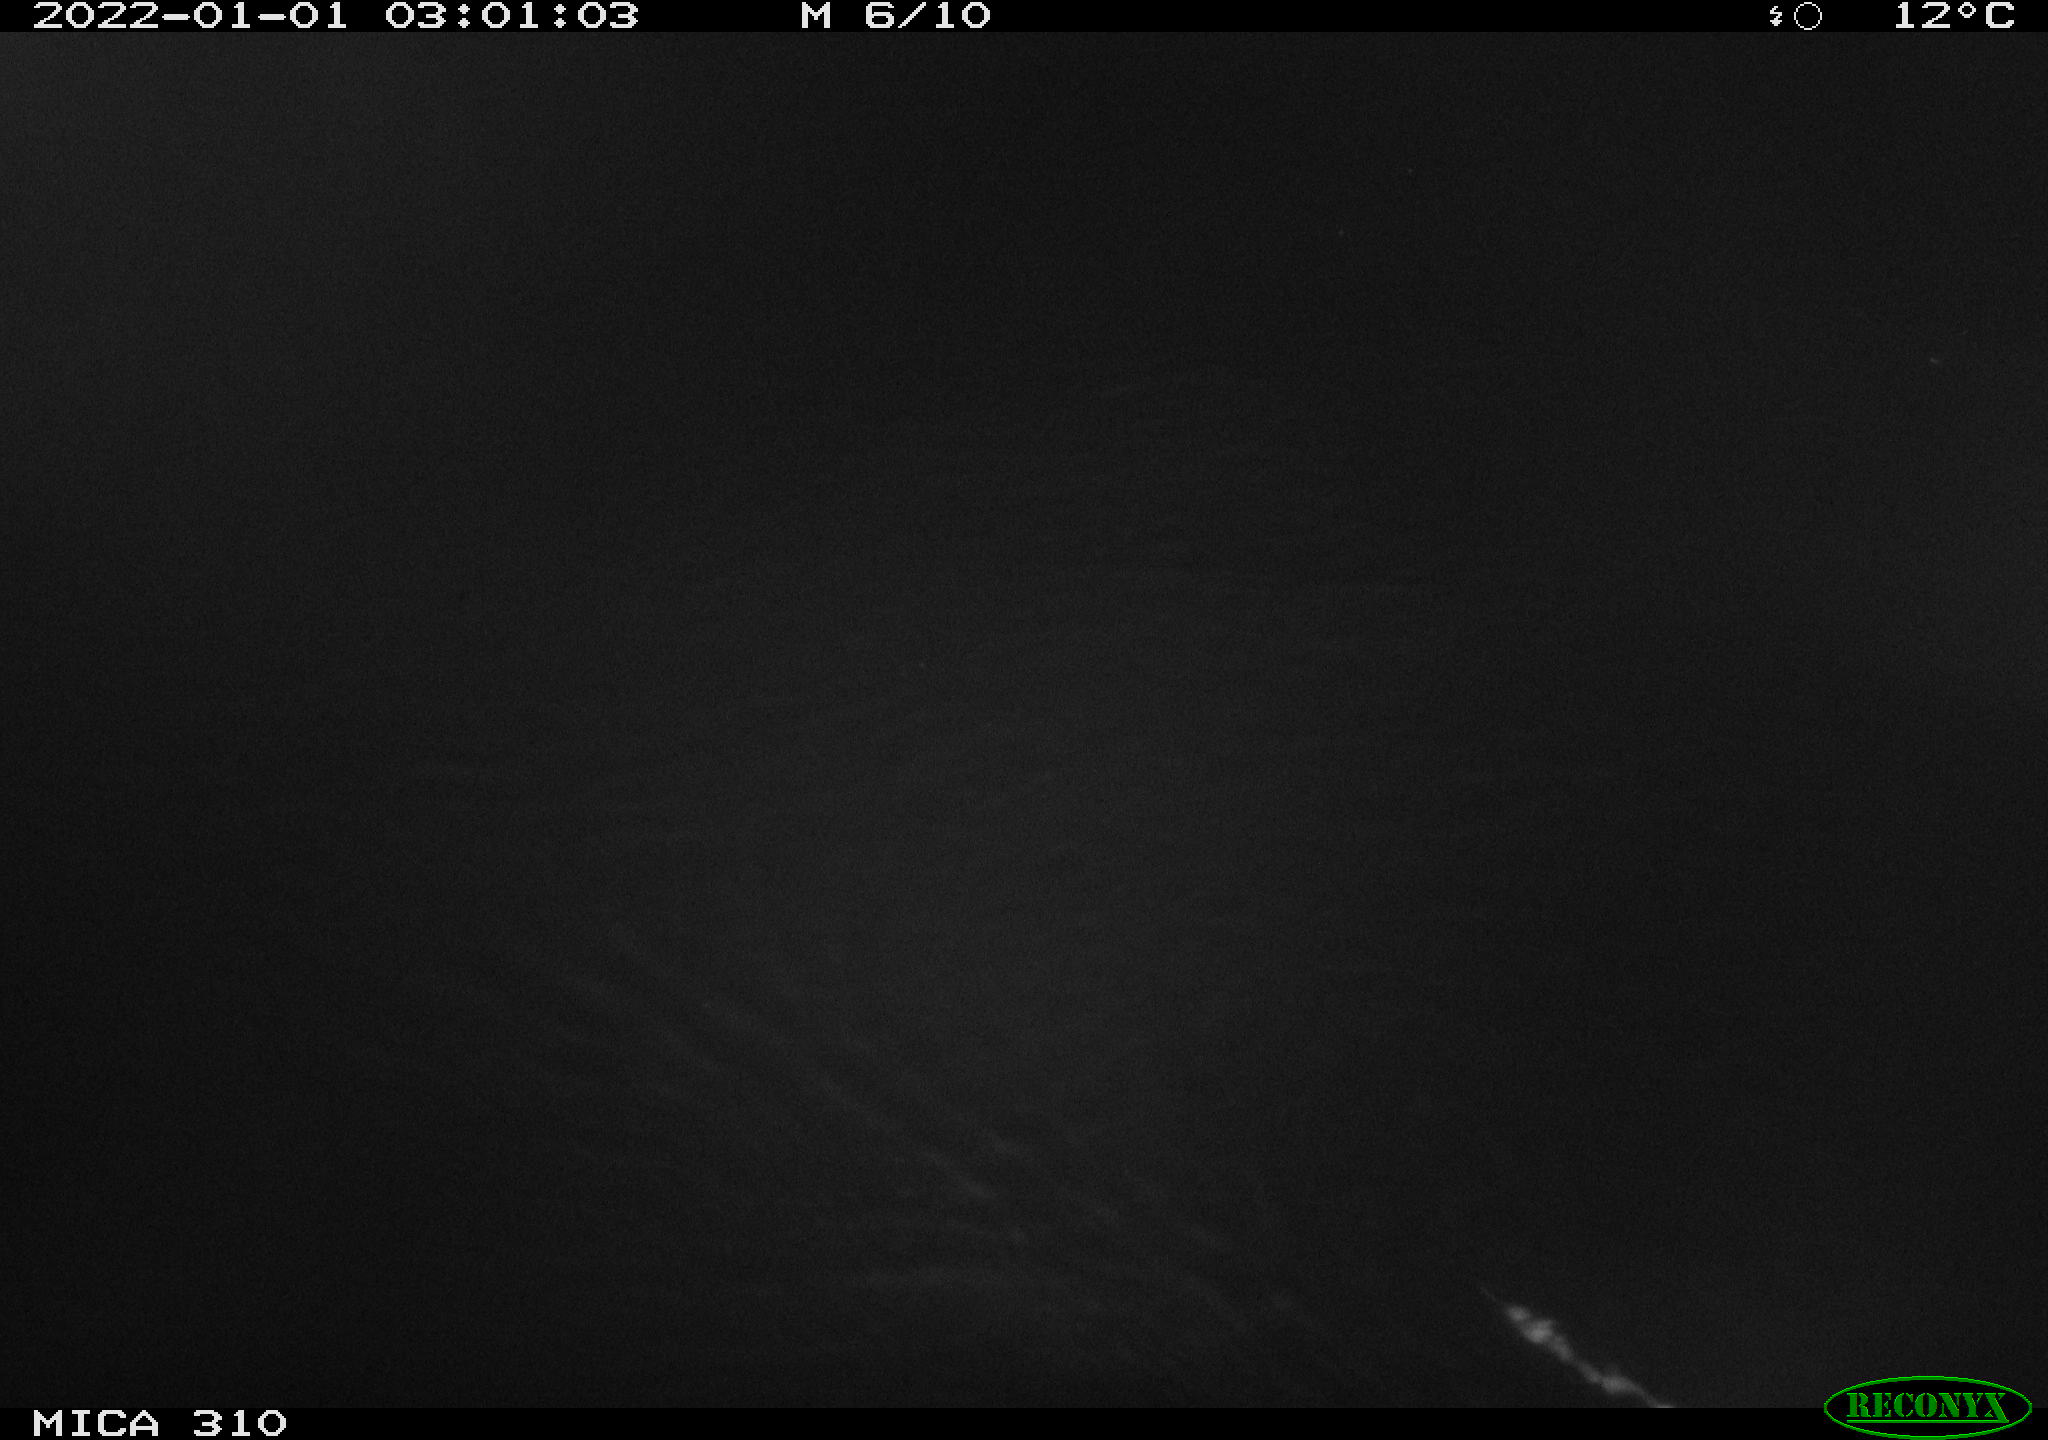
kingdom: Animalia
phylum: Chordata
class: Mammalia
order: Rodentia
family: Muridae
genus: Rattus
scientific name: Rattus norvegicus
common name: Brown rat
